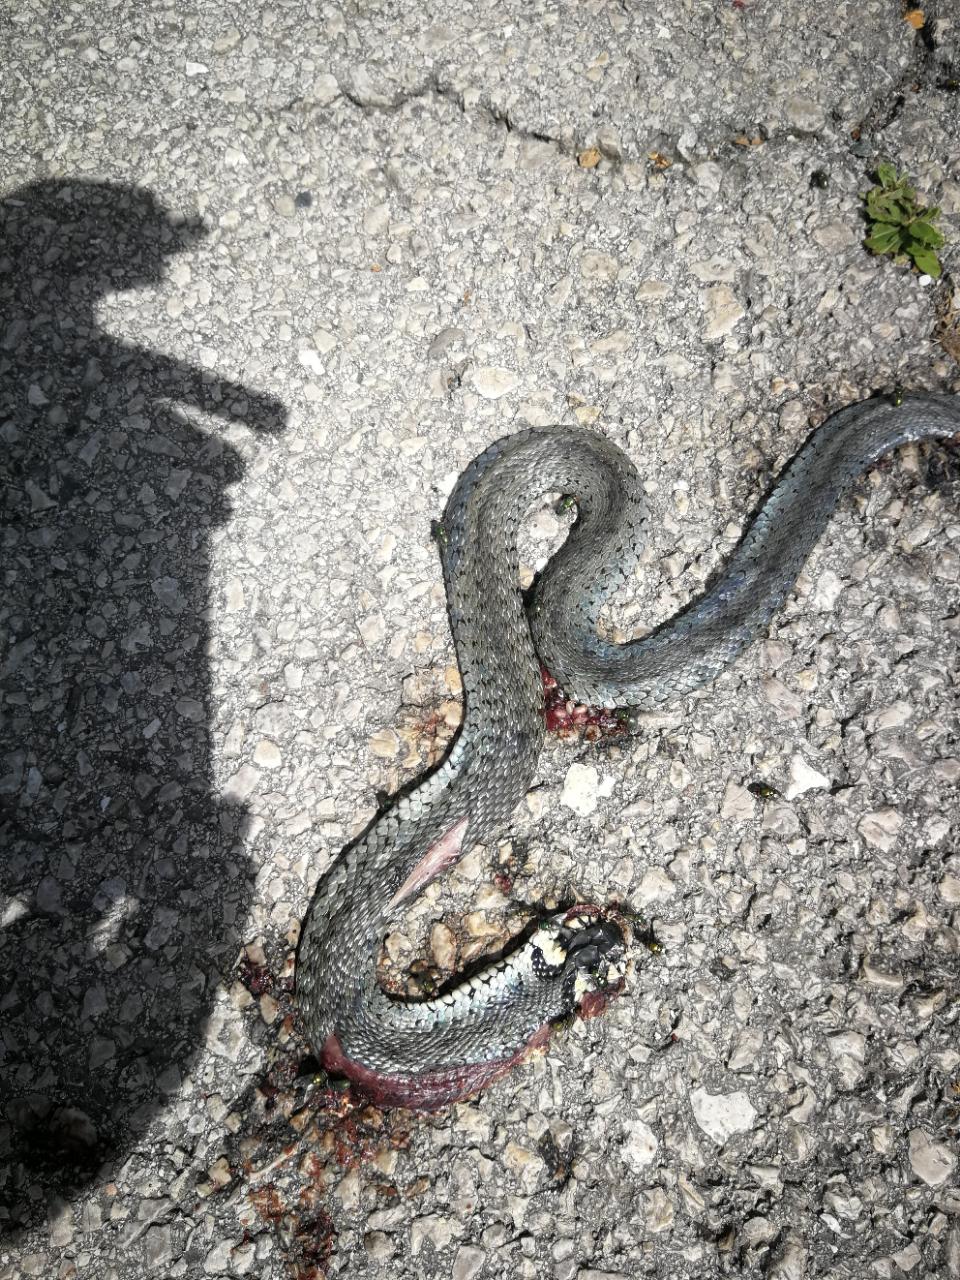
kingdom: Animalia
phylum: Chordata
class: Squamata
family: Colubridae
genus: Natrix
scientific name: Natrix natrix
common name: Grass snake
